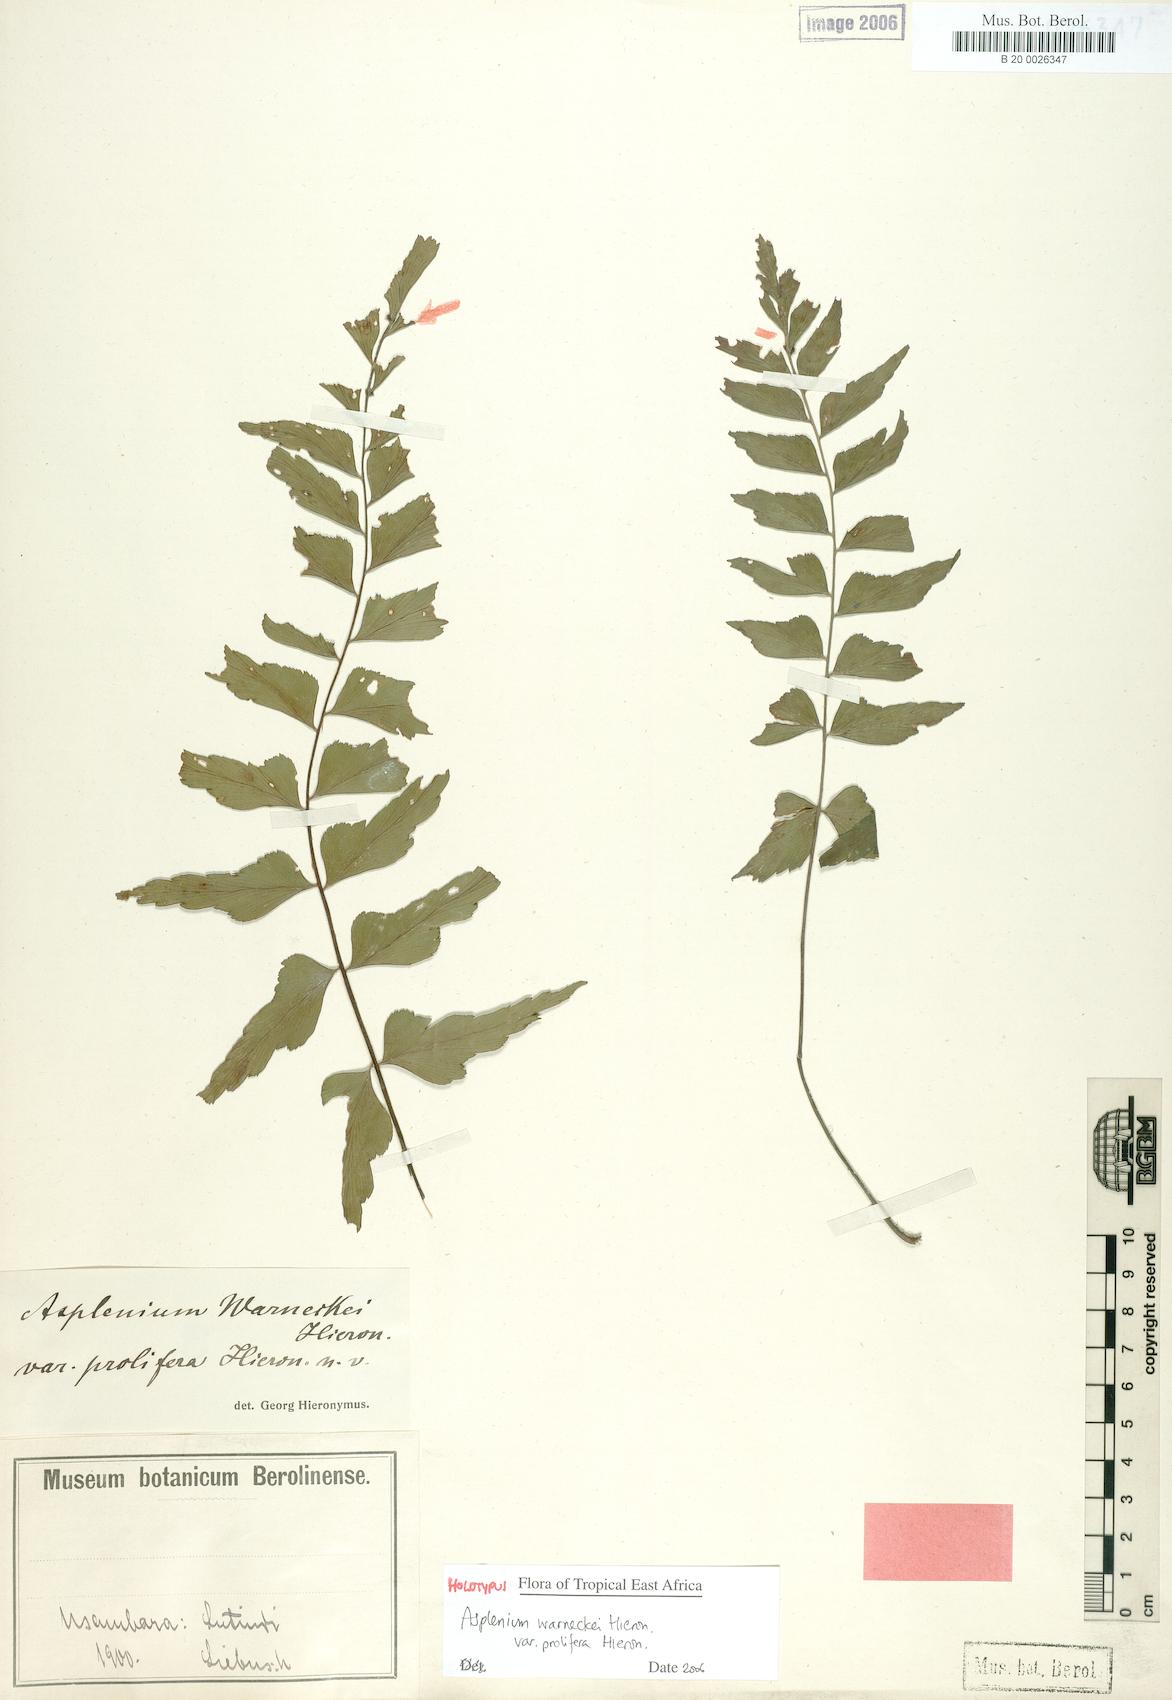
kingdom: Plantae
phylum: Tracheophyta
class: Polypodiopsida
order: Polypodiales
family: Aspleniaceae
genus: Asplenium
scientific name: Asplenium warneckei
